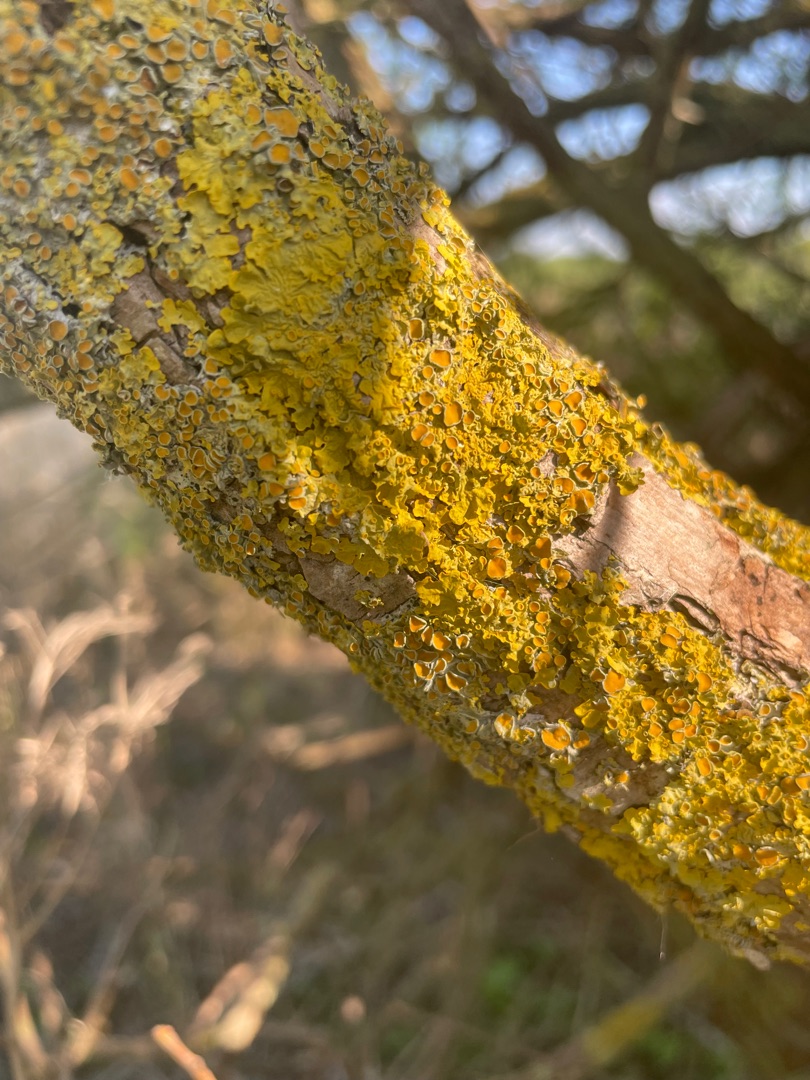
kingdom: Fungi
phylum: Ascomycota
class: Lecanoromycetes
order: Teloschistales
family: Teloschistaceae
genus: Xanthoria
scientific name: Xanthoria parietina
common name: Almindelig væggelav
